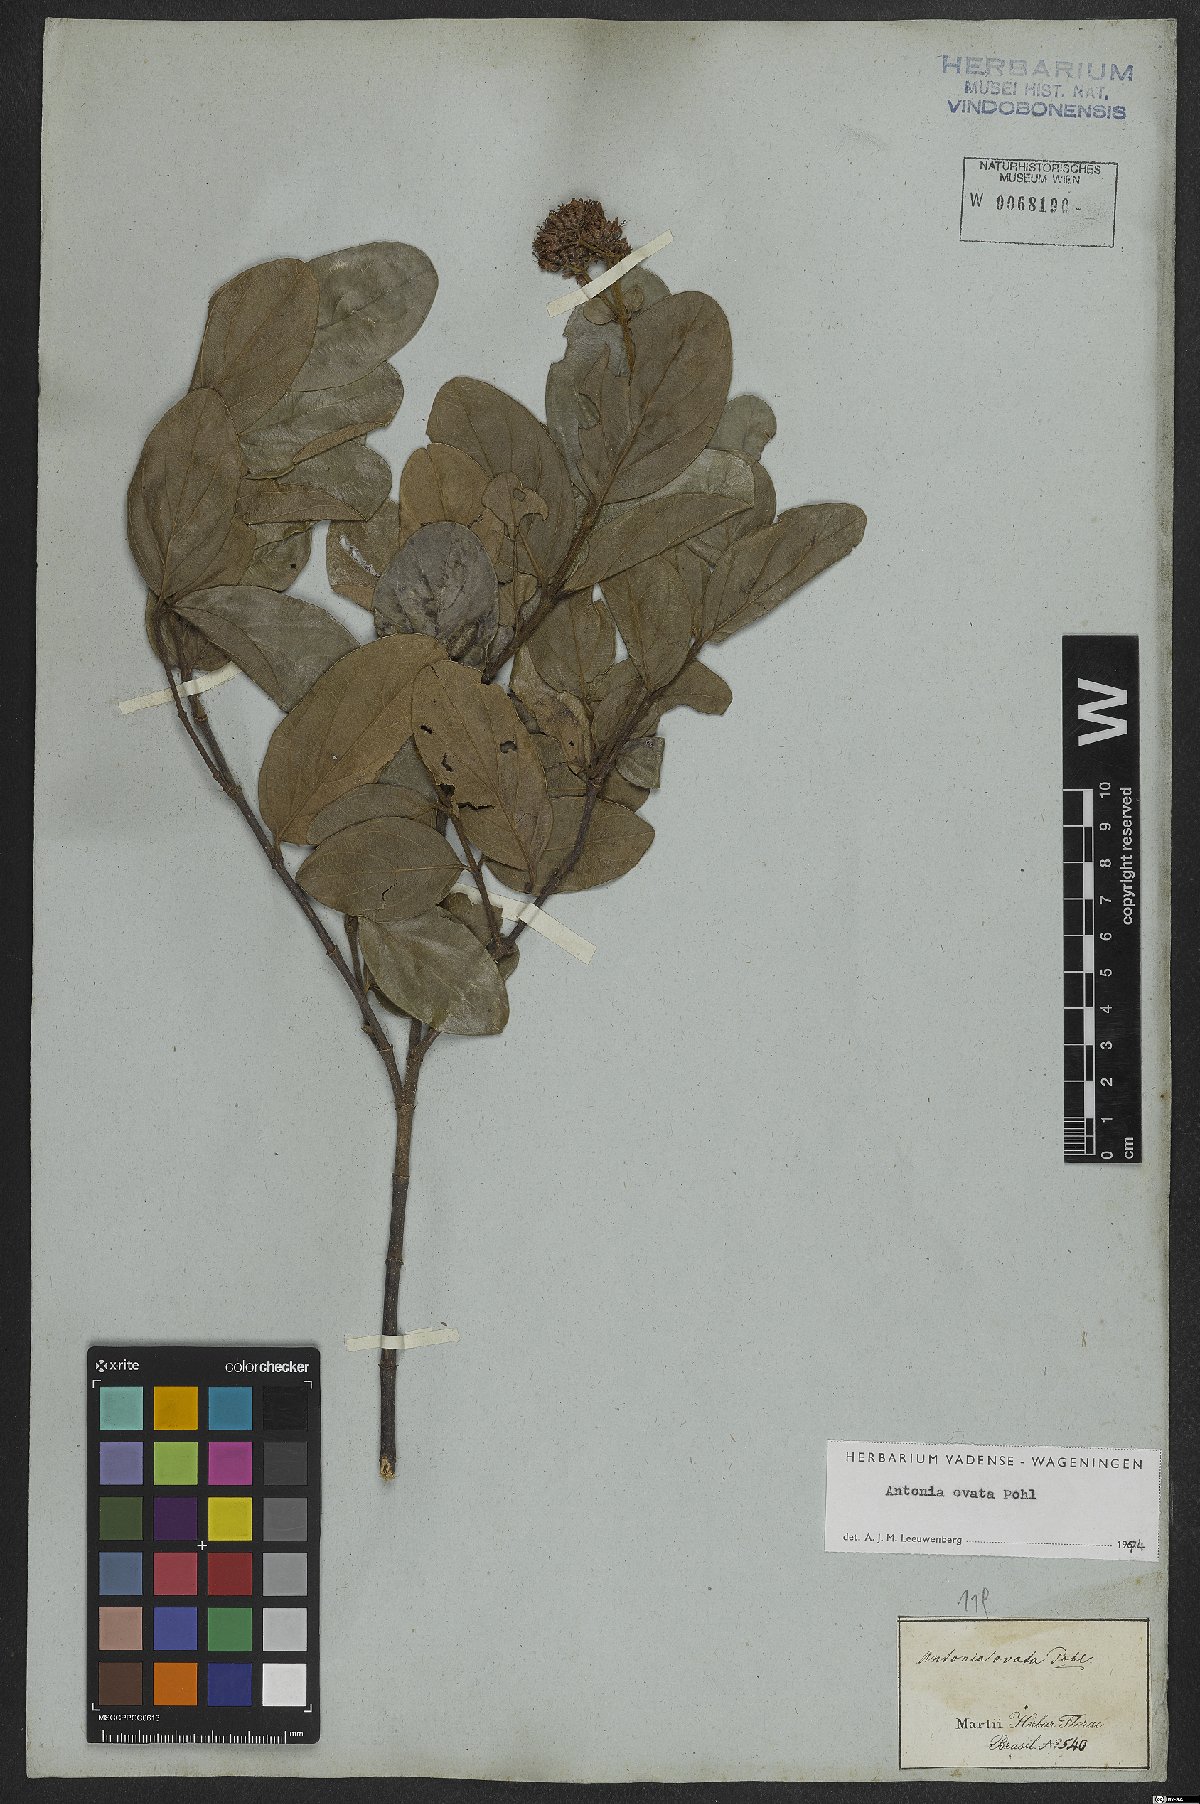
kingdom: Plantae
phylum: Tracheophyta
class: Magnoliopsida
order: Gentianales
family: Loganiaceae
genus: Antonia
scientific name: Antonia ovata
